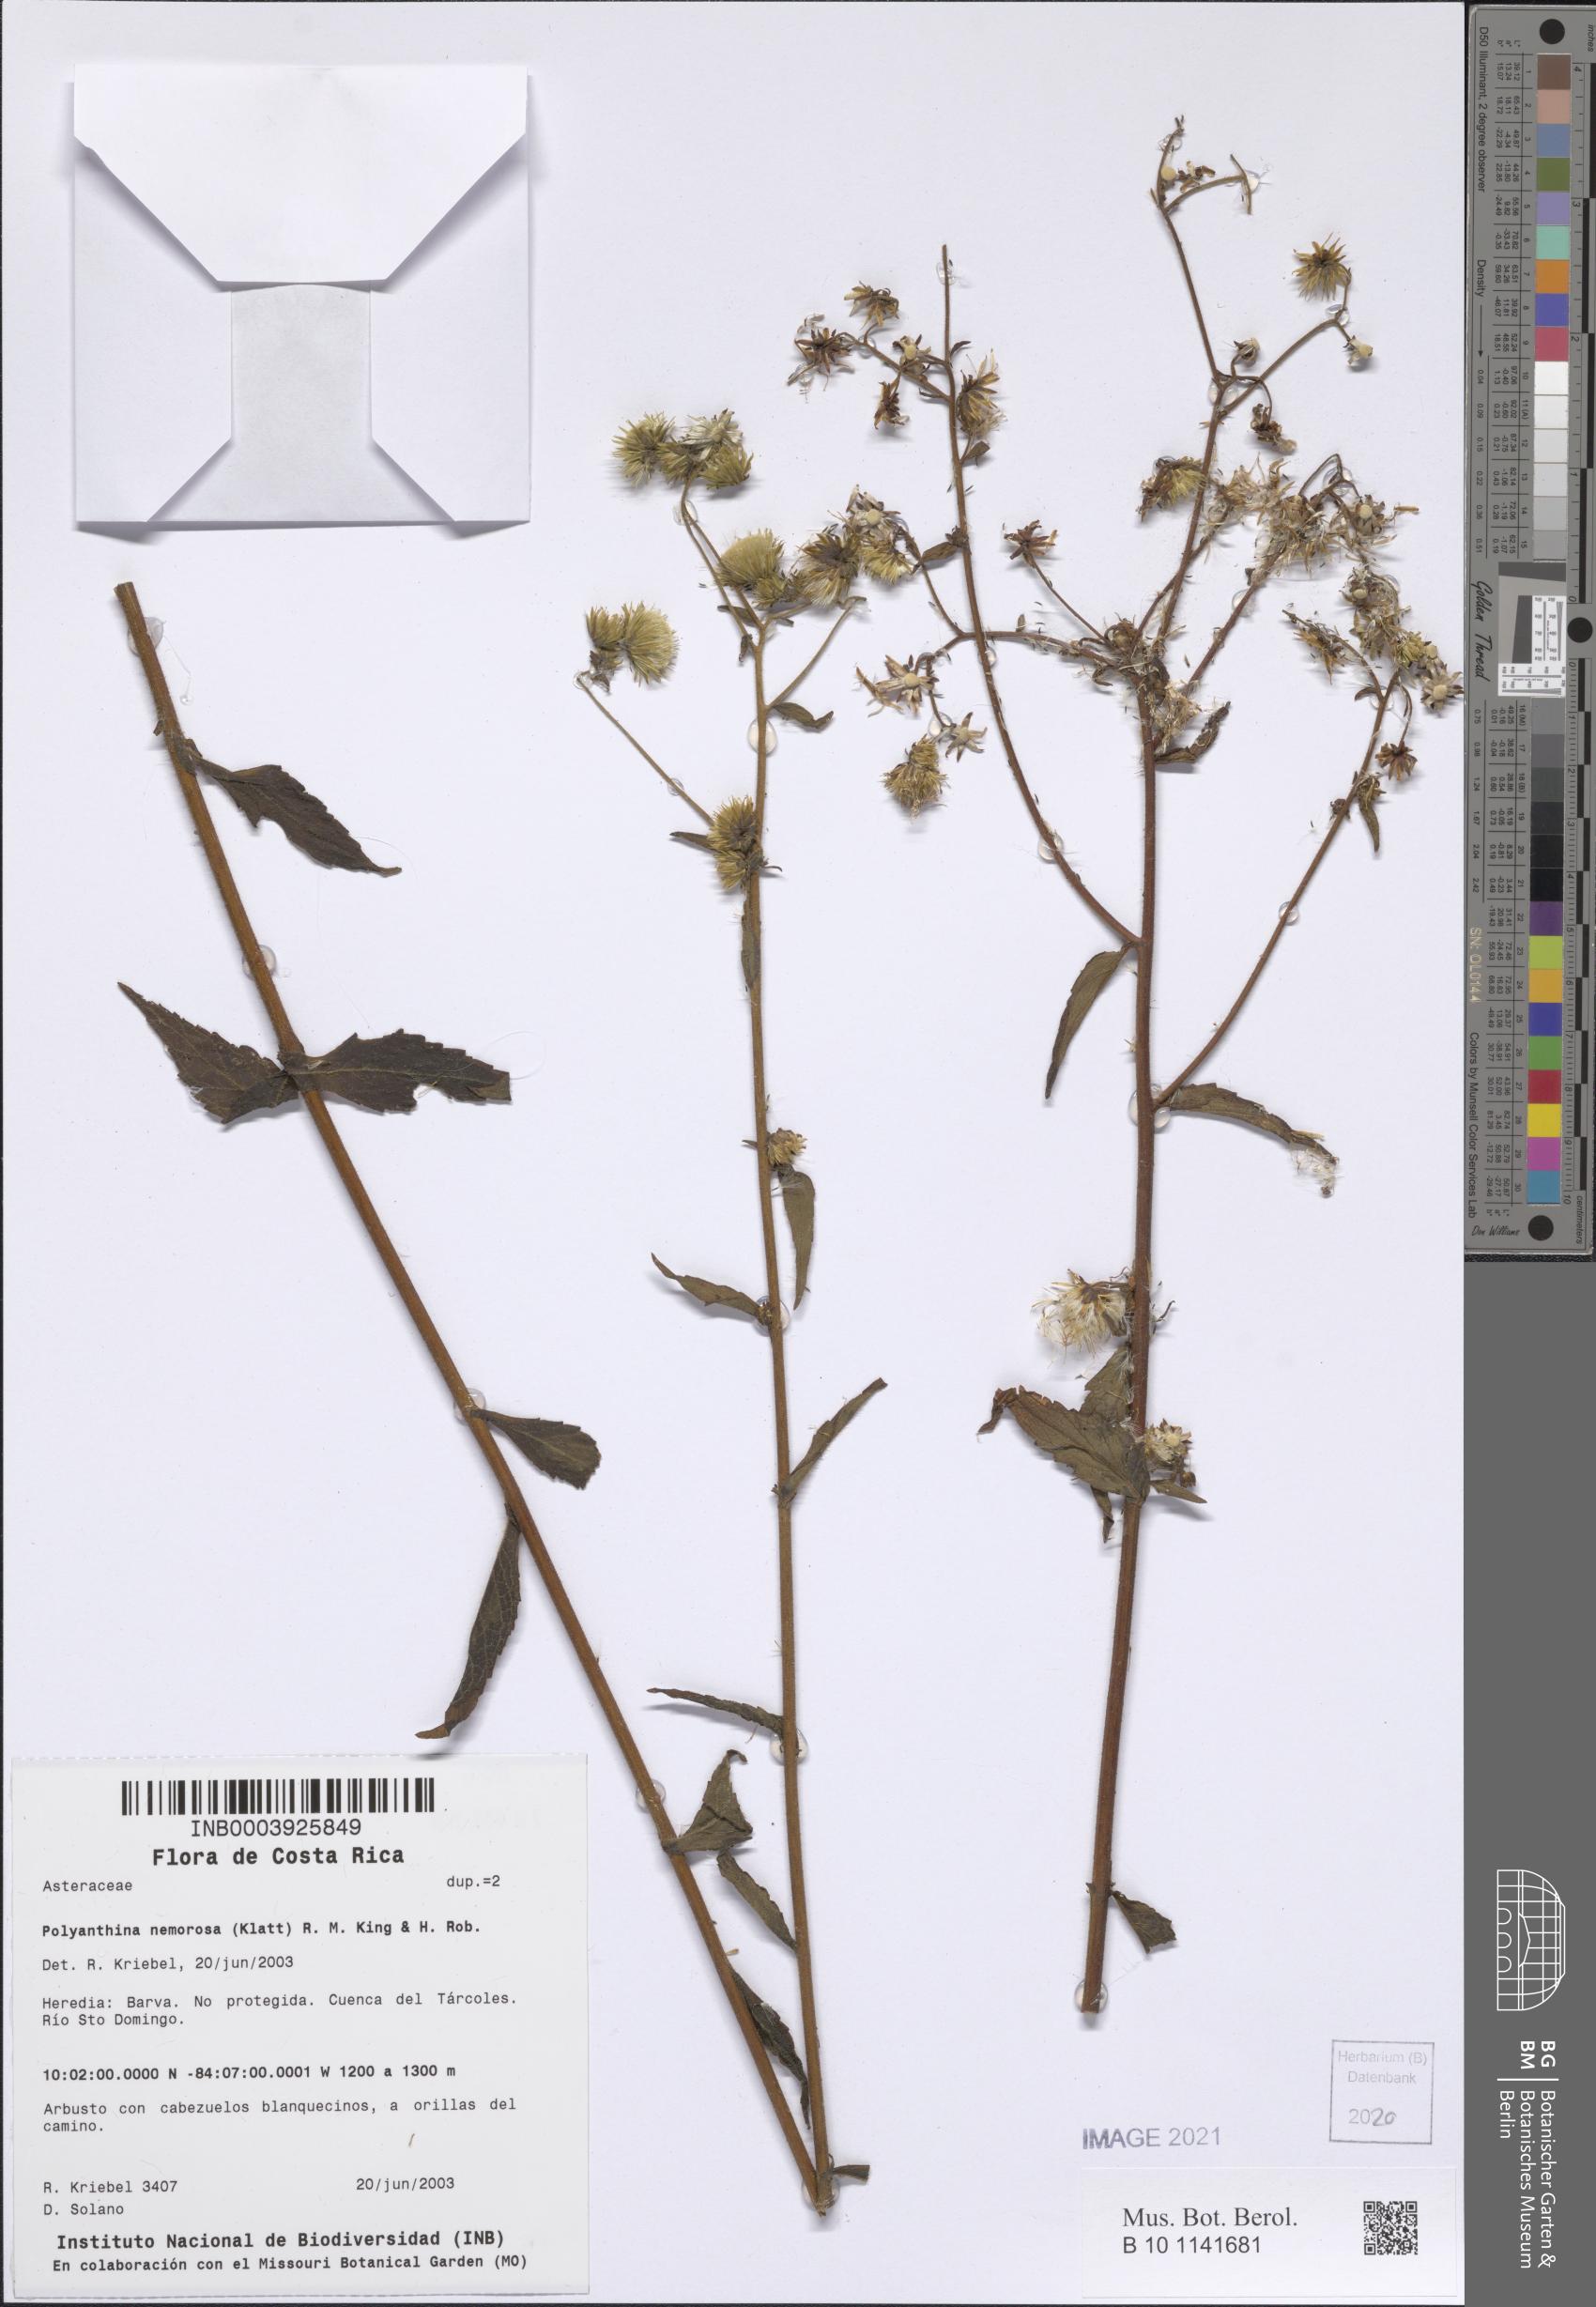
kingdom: Plantae
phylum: Tracheophyta
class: Magnoliopsida
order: Asterales
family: Asteraceae
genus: Polyanthina
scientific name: Polyanthina nemorosa
